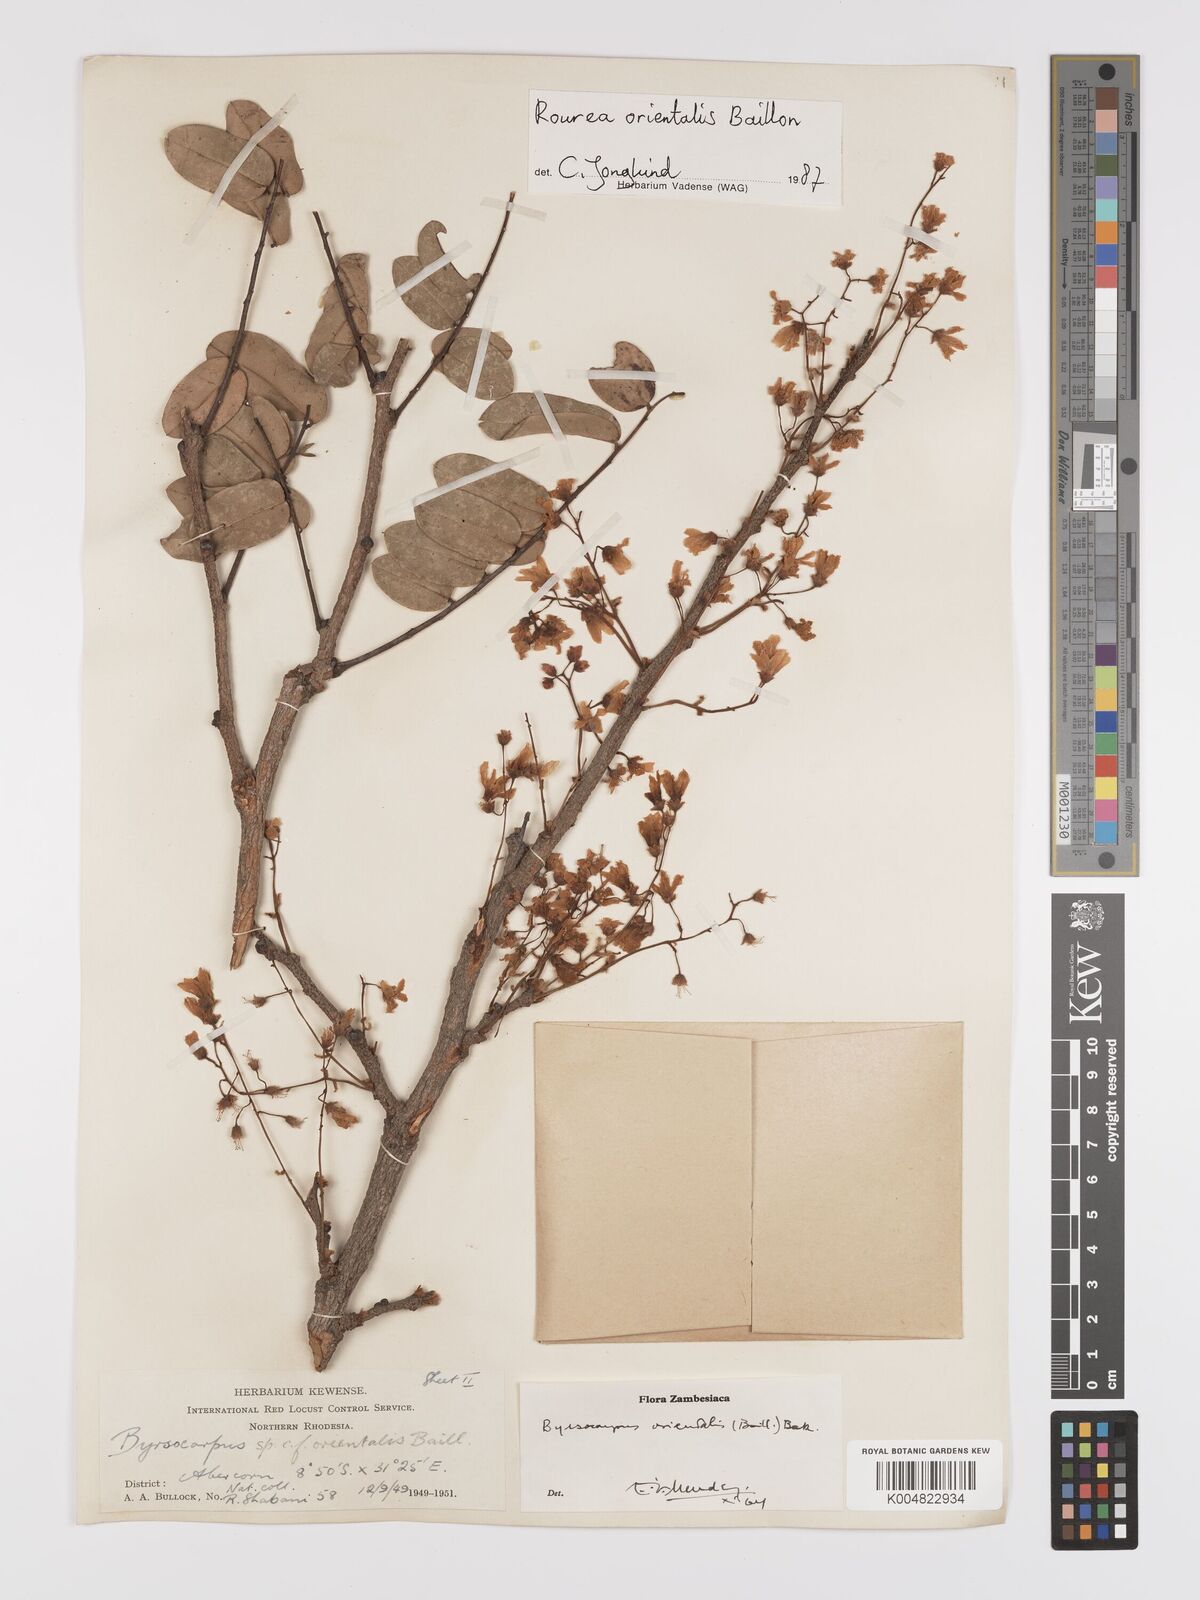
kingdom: Plantae
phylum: Tracheophyta
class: Magnoliopsida
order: Oxalidales
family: Connaraceae
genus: Rourea
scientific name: Rourea orientalis
